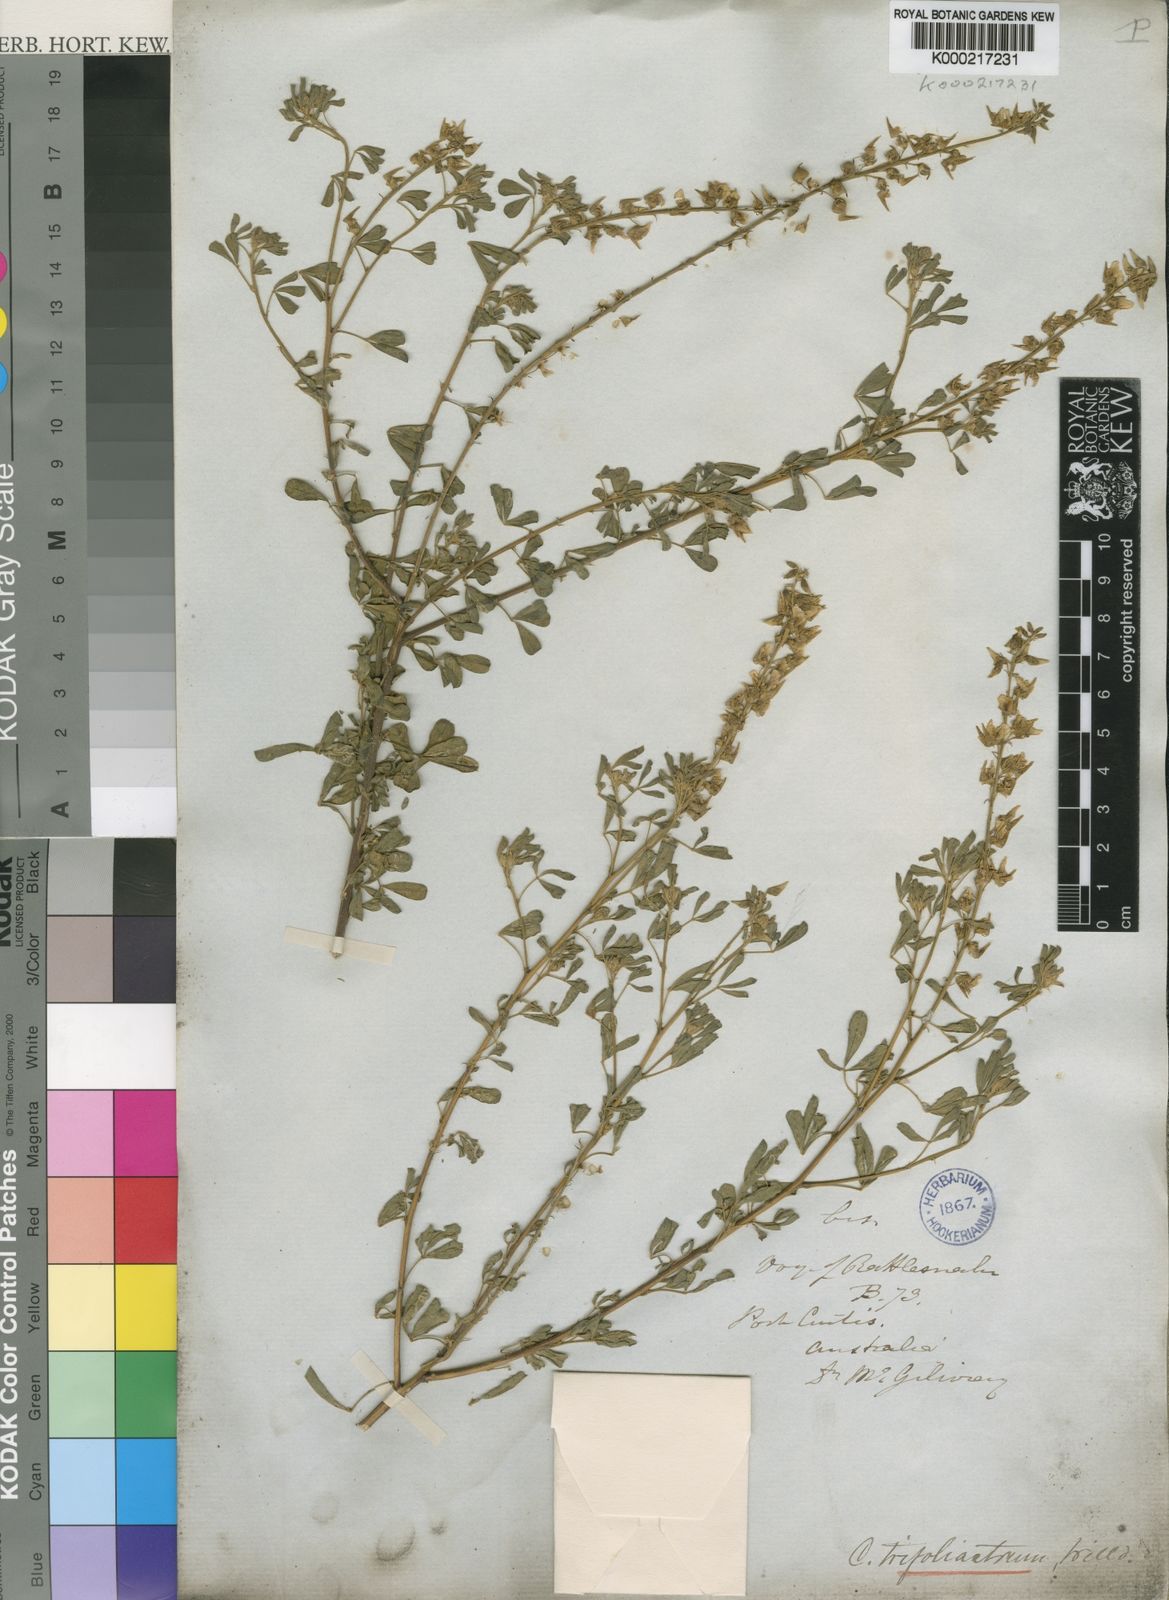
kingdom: Plantae
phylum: Tracheophyta
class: Magnoliopsida
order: Fabales
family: Fabaceae
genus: Crotalaria
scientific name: Crotalaria trifoliastrum
